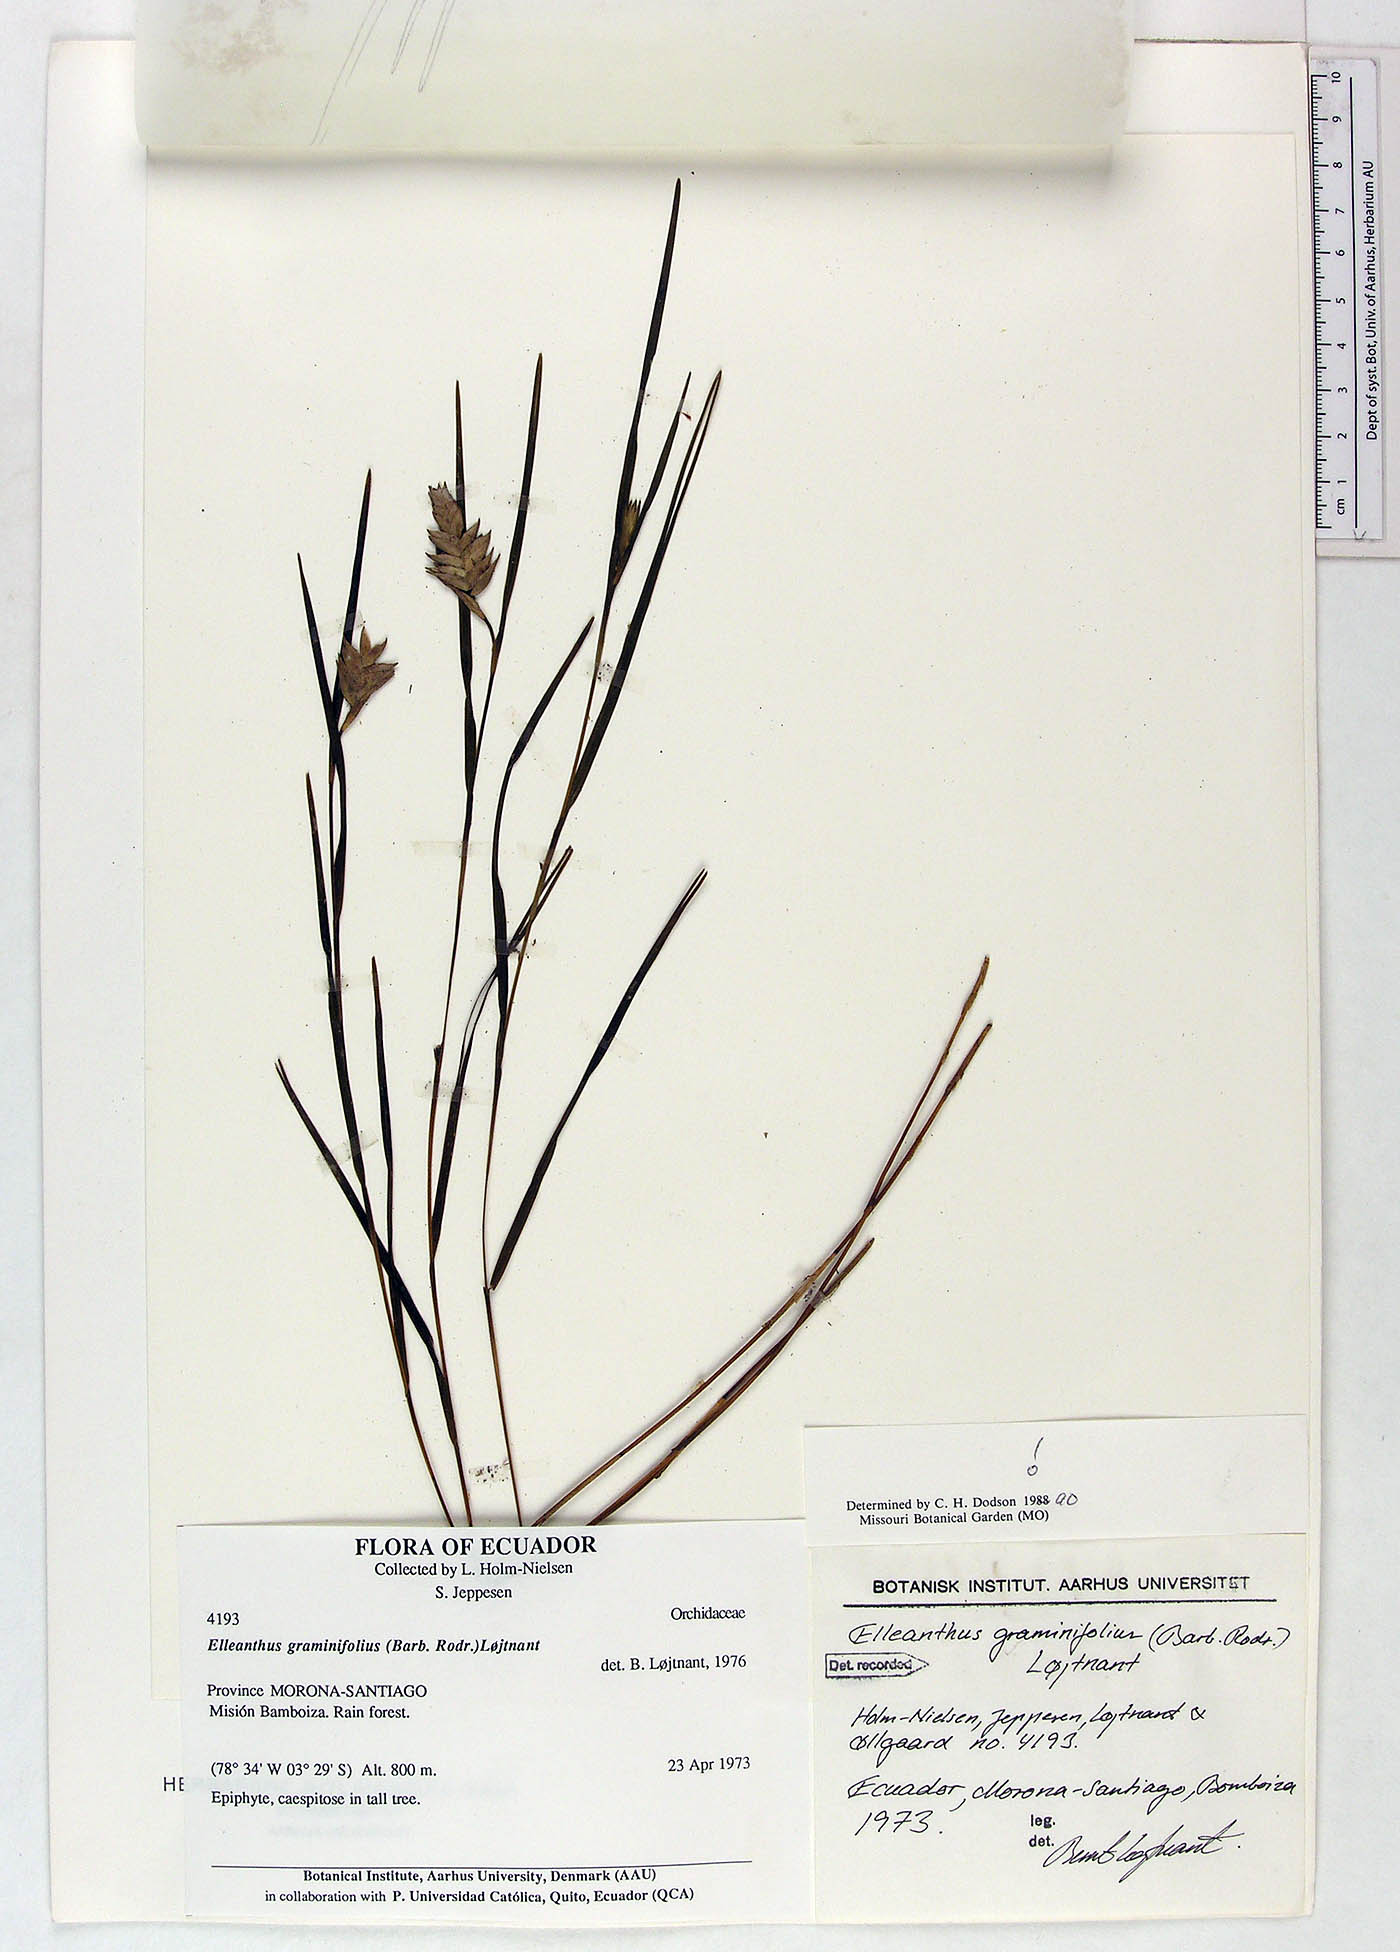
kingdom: Plantae
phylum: Tracheophyta
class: Liliopsida
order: Asparagales
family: Orchidaceae
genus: Elleanthus
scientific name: Elleanthus graminifolius
